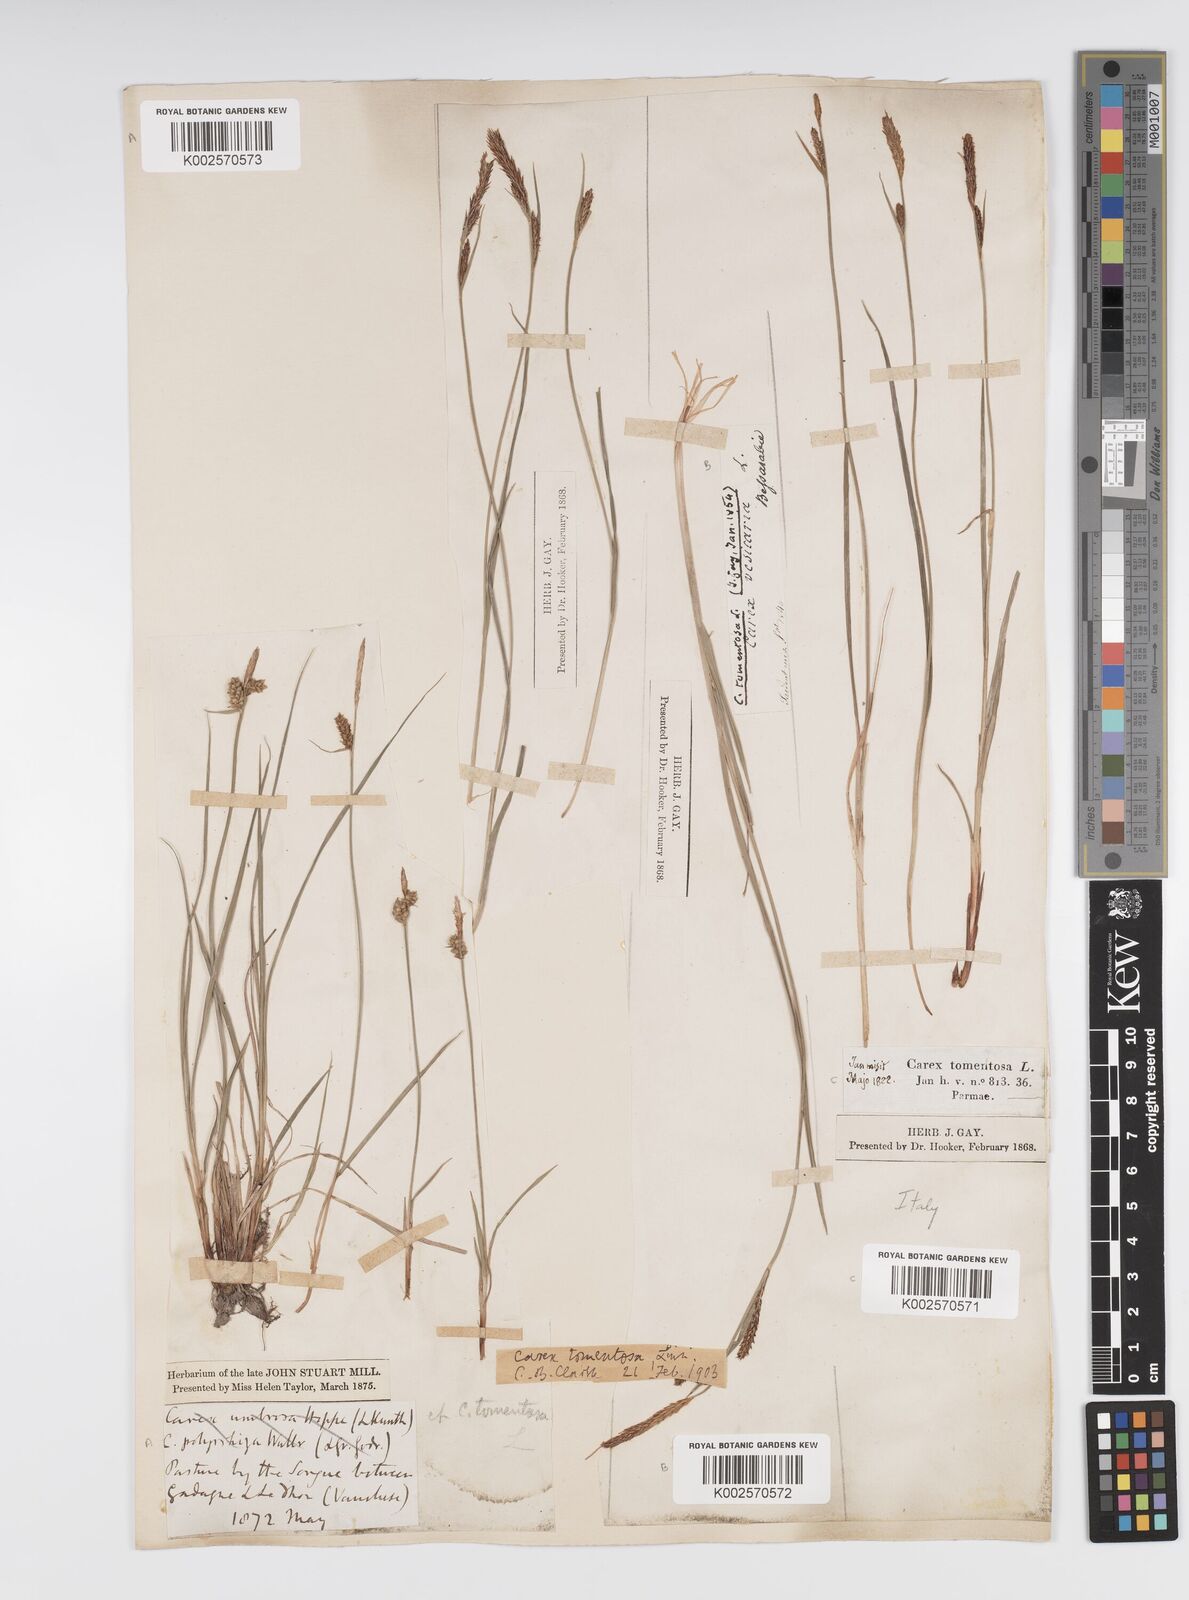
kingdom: Plantae
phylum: Tracheophyta
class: Liliopsida
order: Poales
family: Cyperaceae
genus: Carex
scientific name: Carex montana
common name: Soft-leaved sedge
